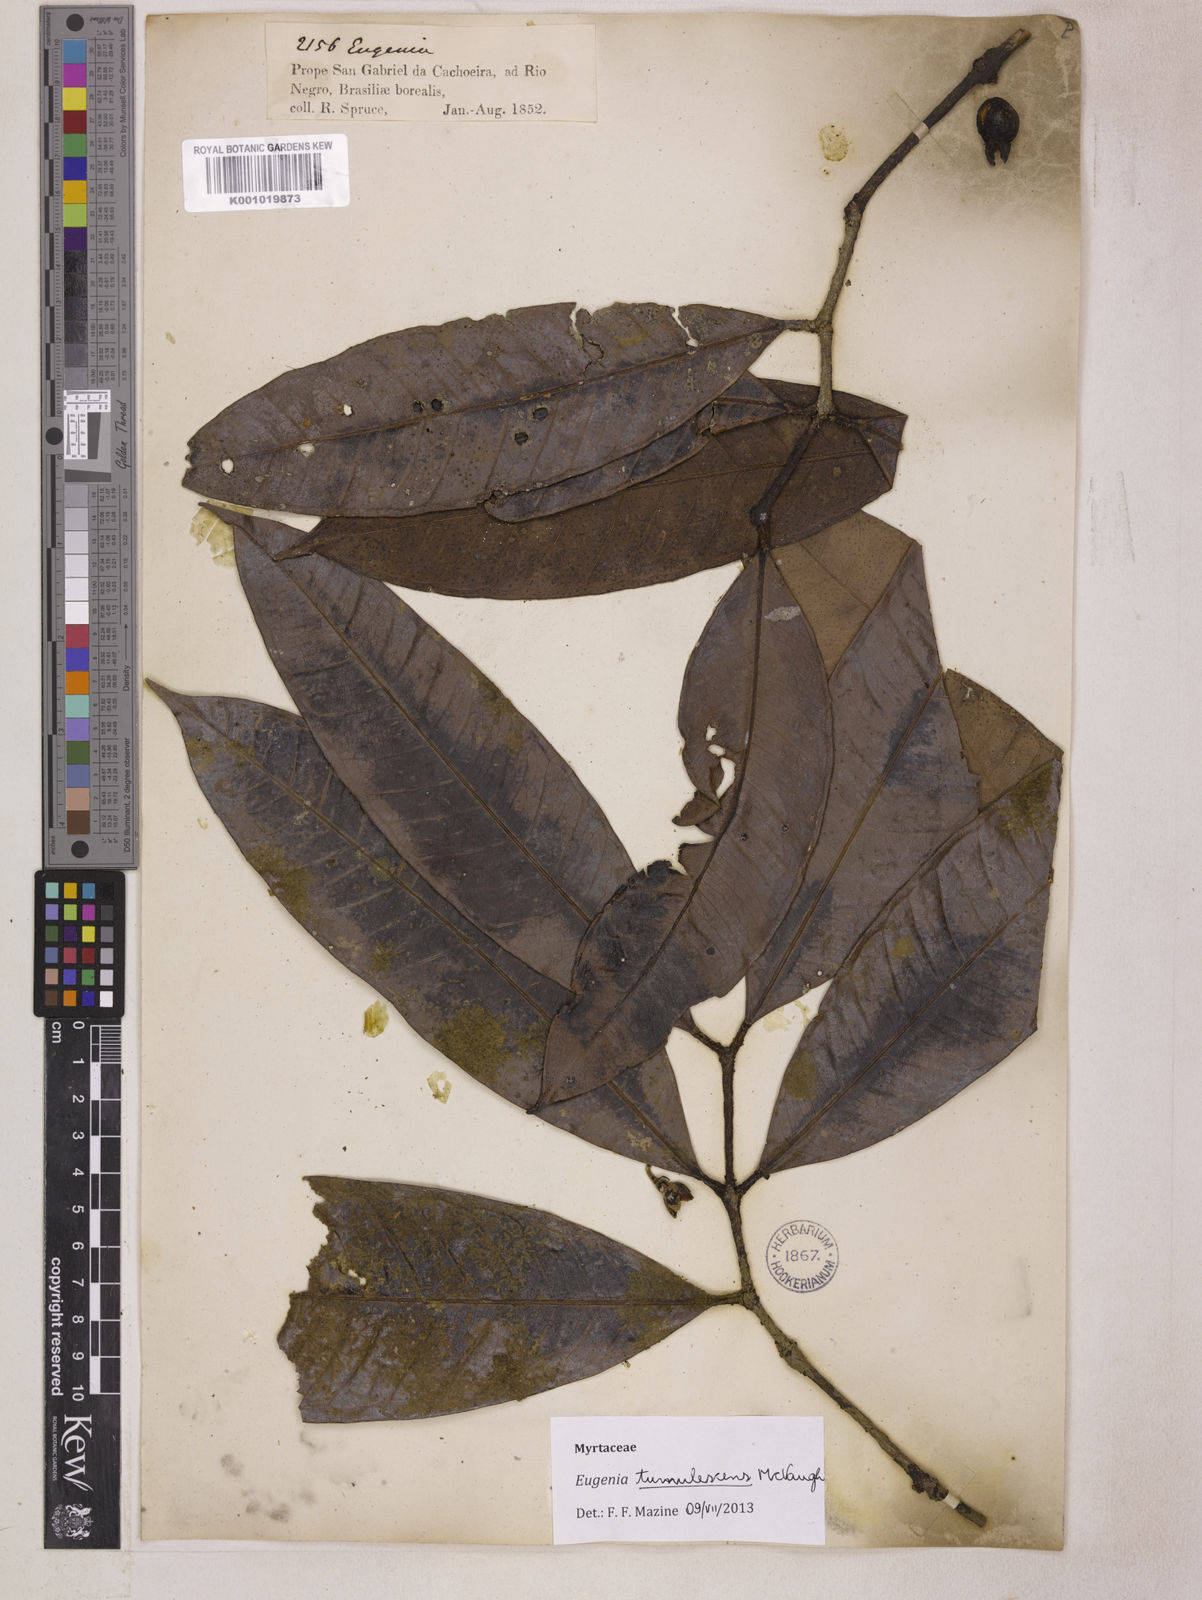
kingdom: Plantae
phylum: Tracheophyta
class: Magnoliopsida
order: Myrtales
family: Myrtaceae
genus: Eugenia
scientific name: Eugenia tumulescens
